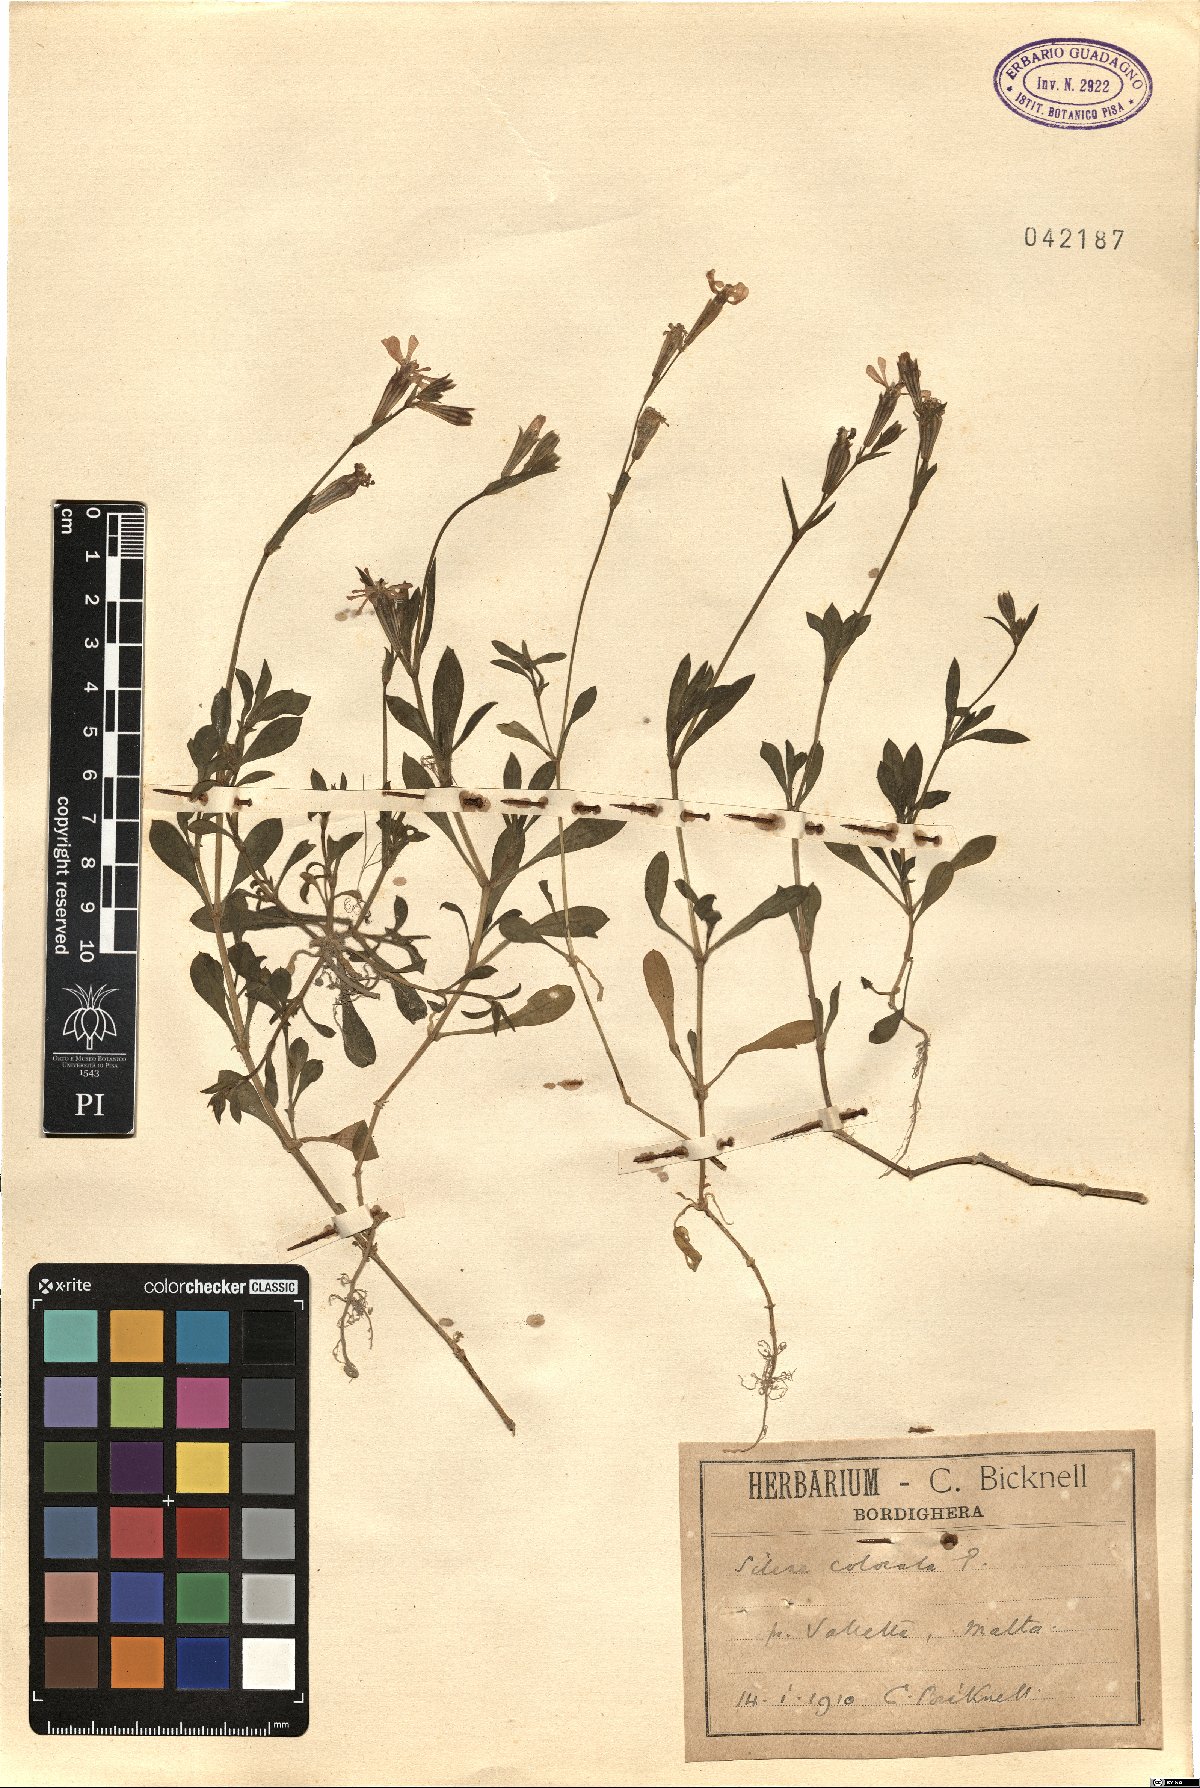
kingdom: Plantae
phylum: Tracheophyta
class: Magnoliopsida
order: Caryophyllales
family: Caryophyllaceae
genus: Silene
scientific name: Silene colorata
